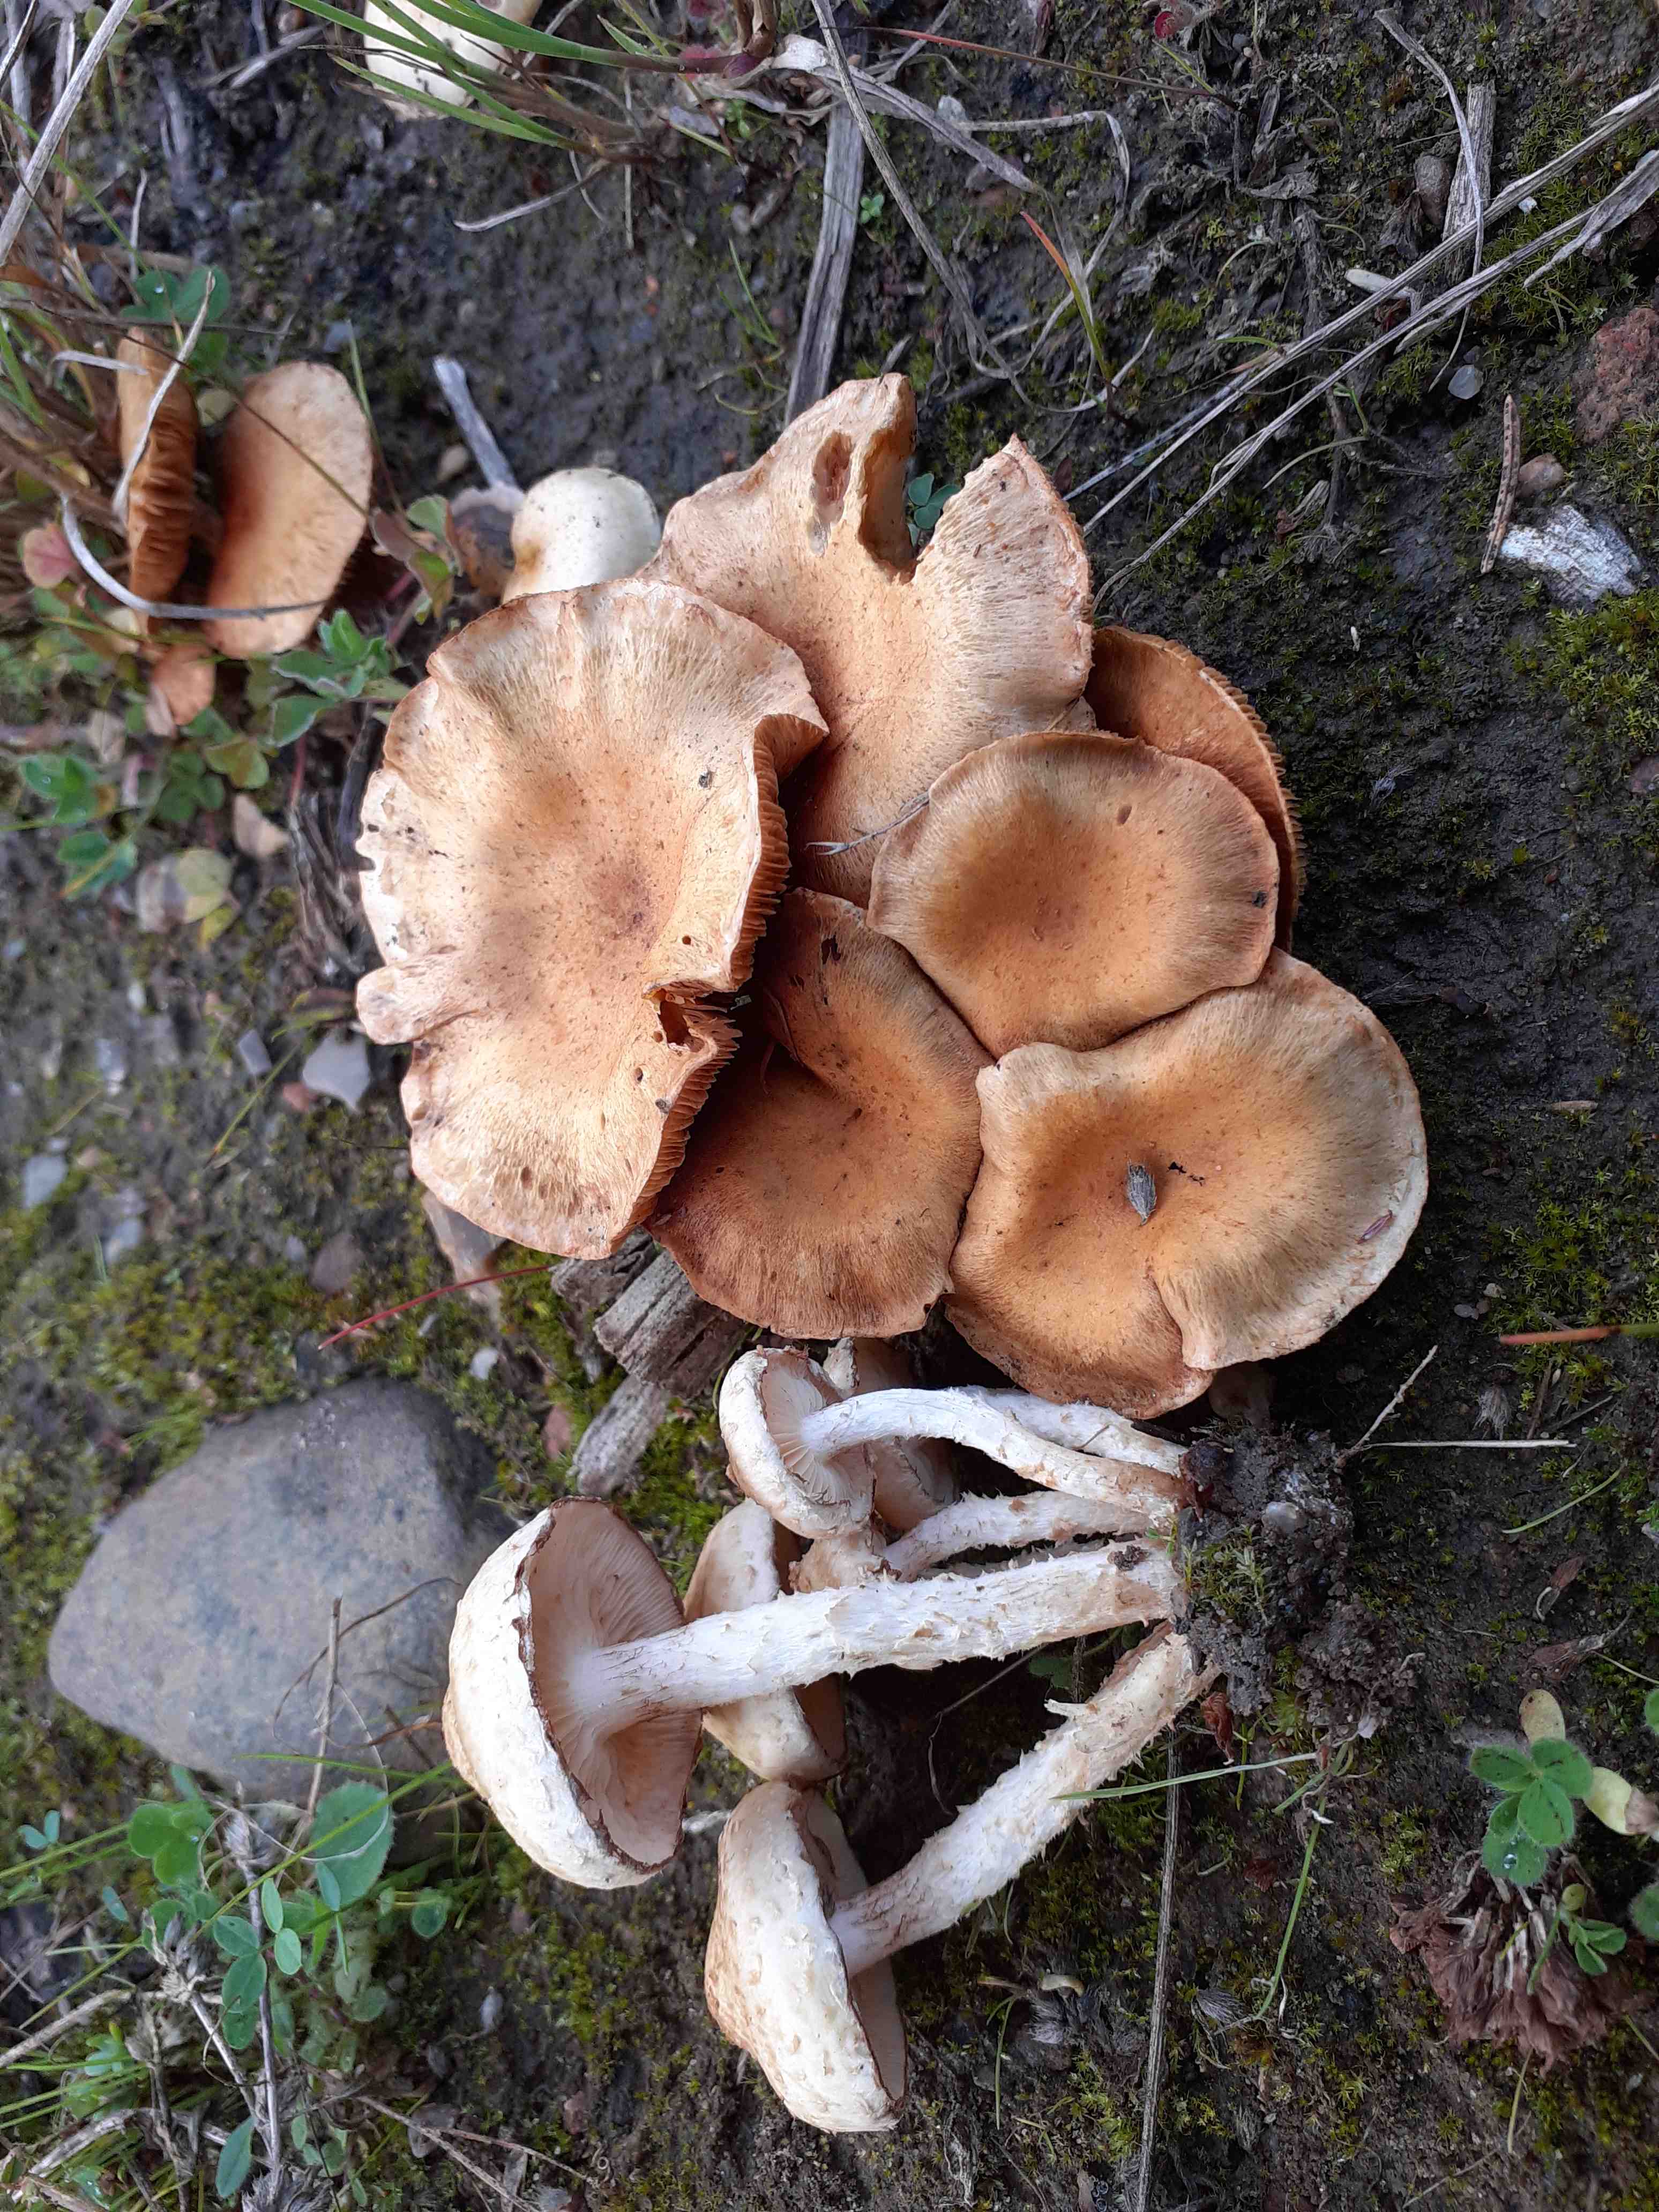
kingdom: Fungi
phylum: Basidiomycota
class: Agaricomycetes
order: Agaricales
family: Strophariaceae
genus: Pholiota
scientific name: Pholiota gummosa
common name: grøngul skælhat
